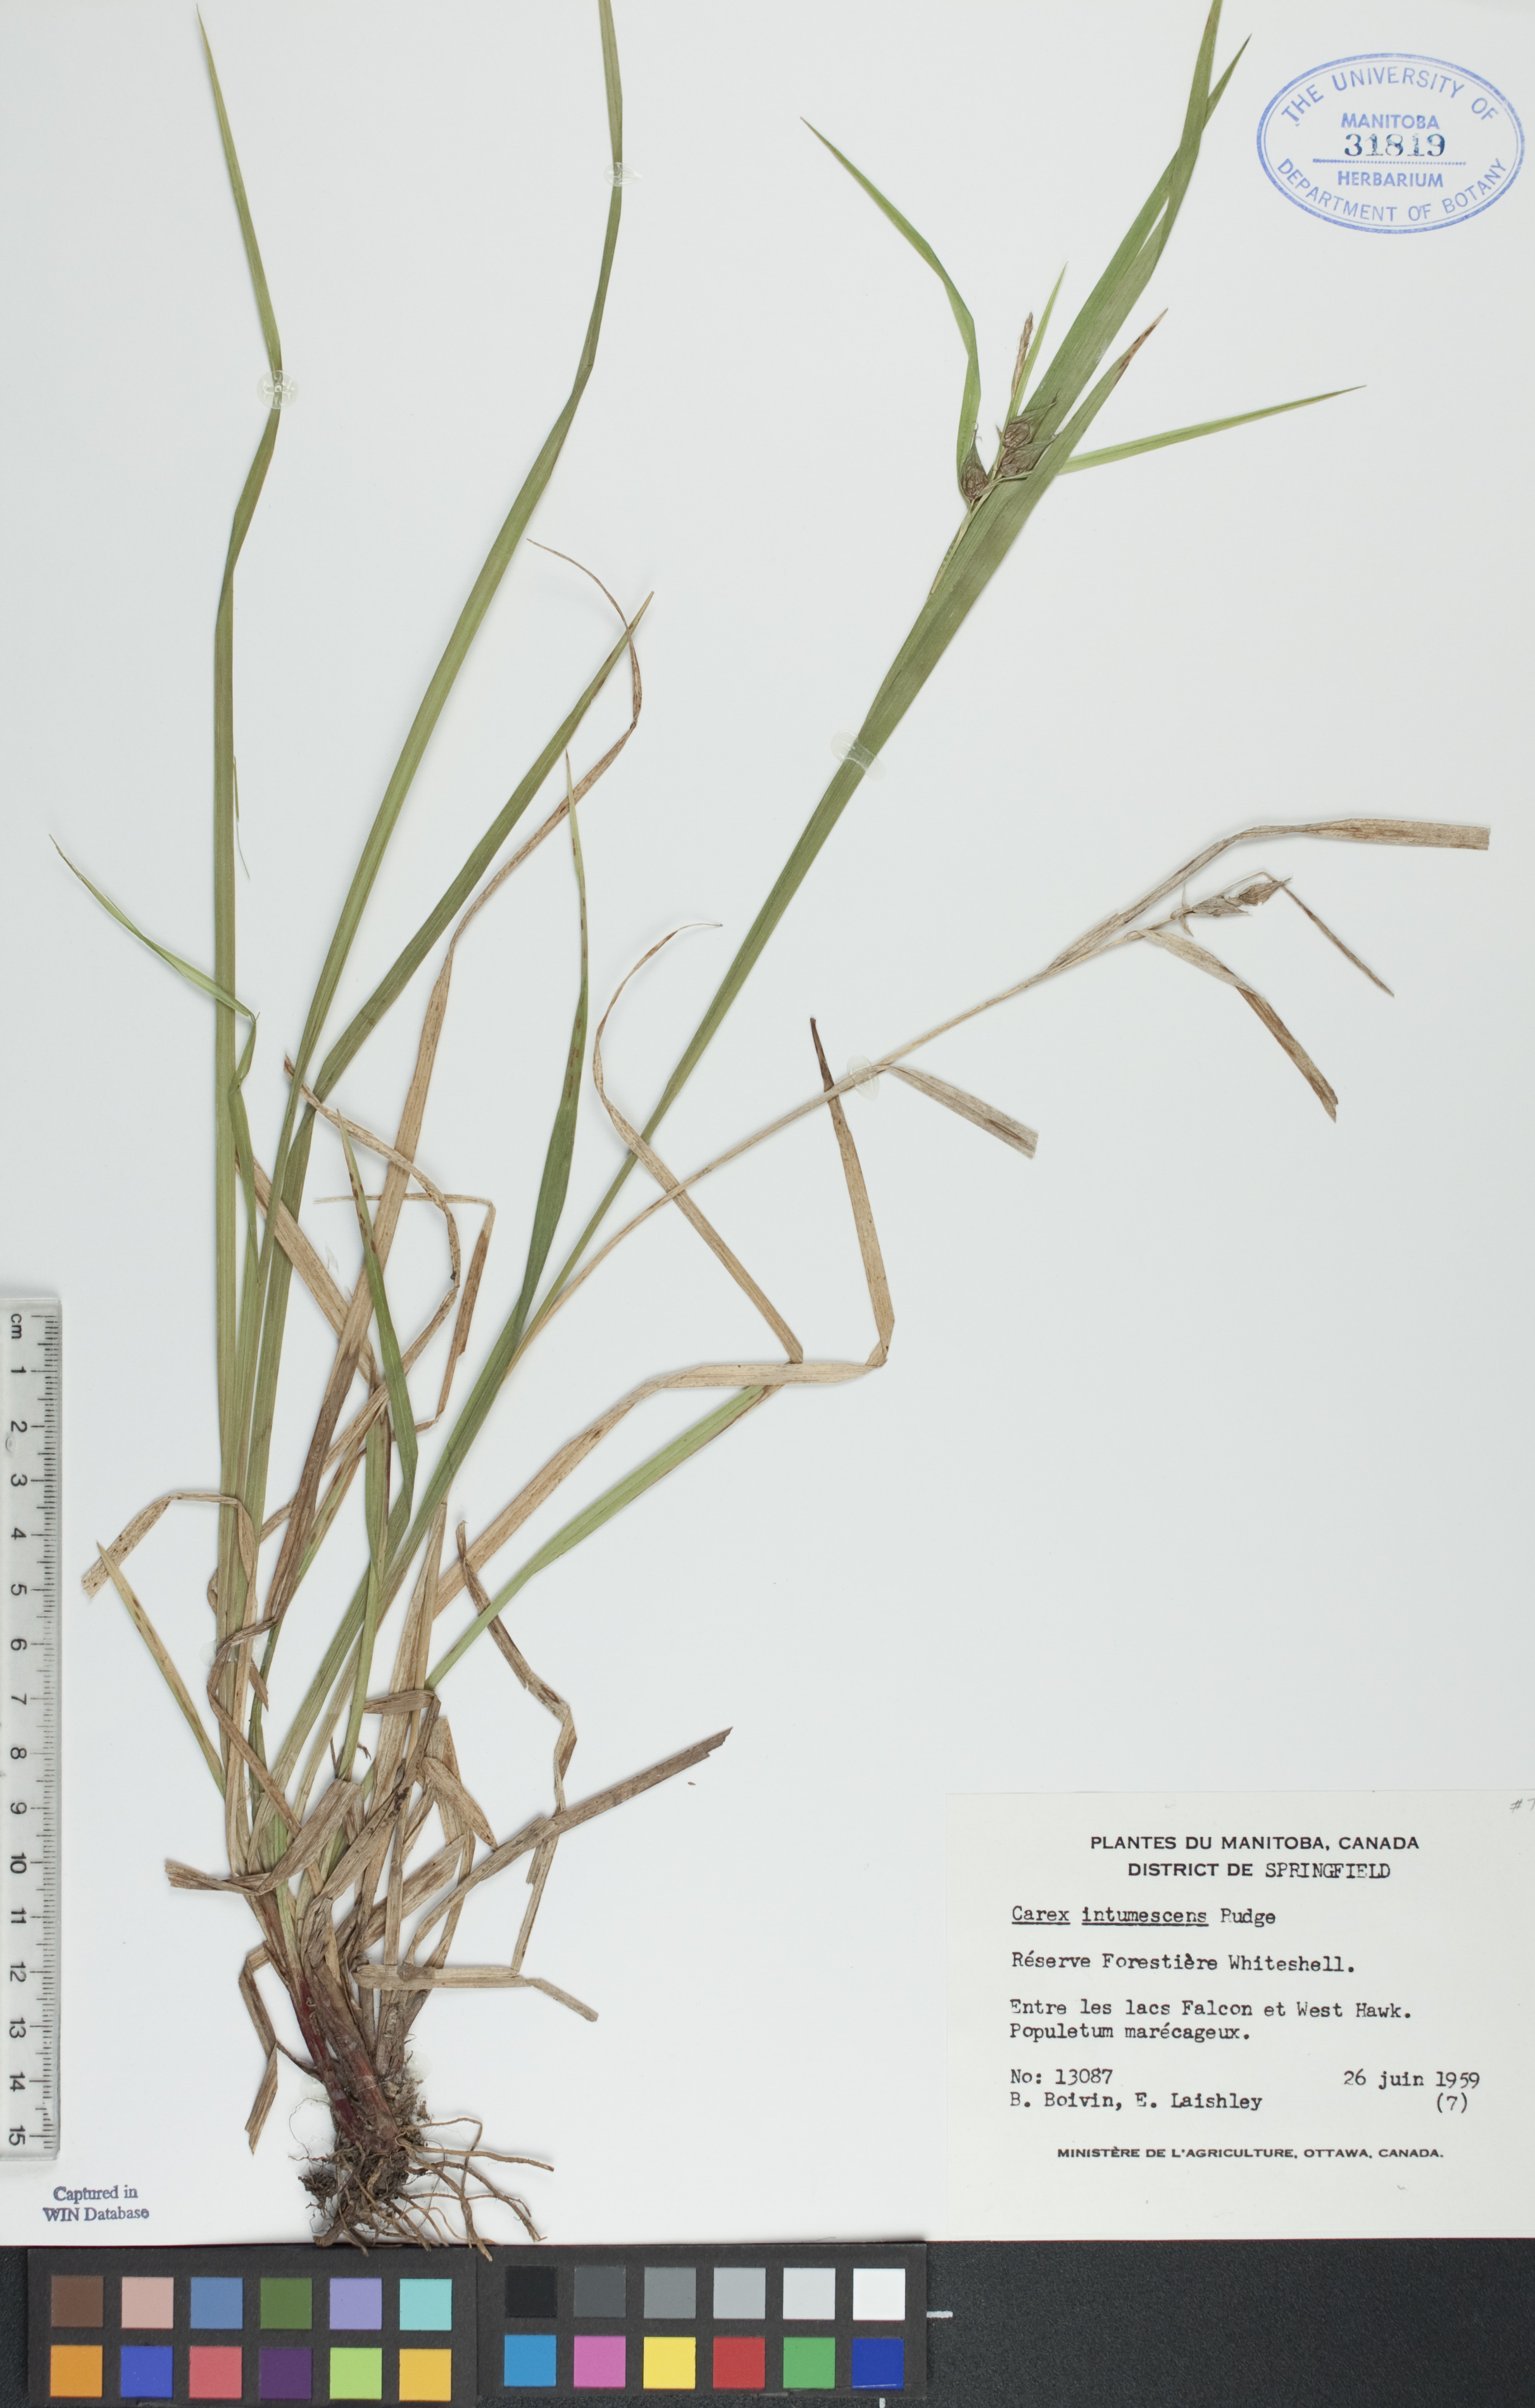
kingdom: Plantae
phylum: Tracheophyta
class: Liliopsida
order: Poales
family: Cyperaceae
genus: Carex
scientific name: Carex intumescens
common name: Greater bladder sedge
